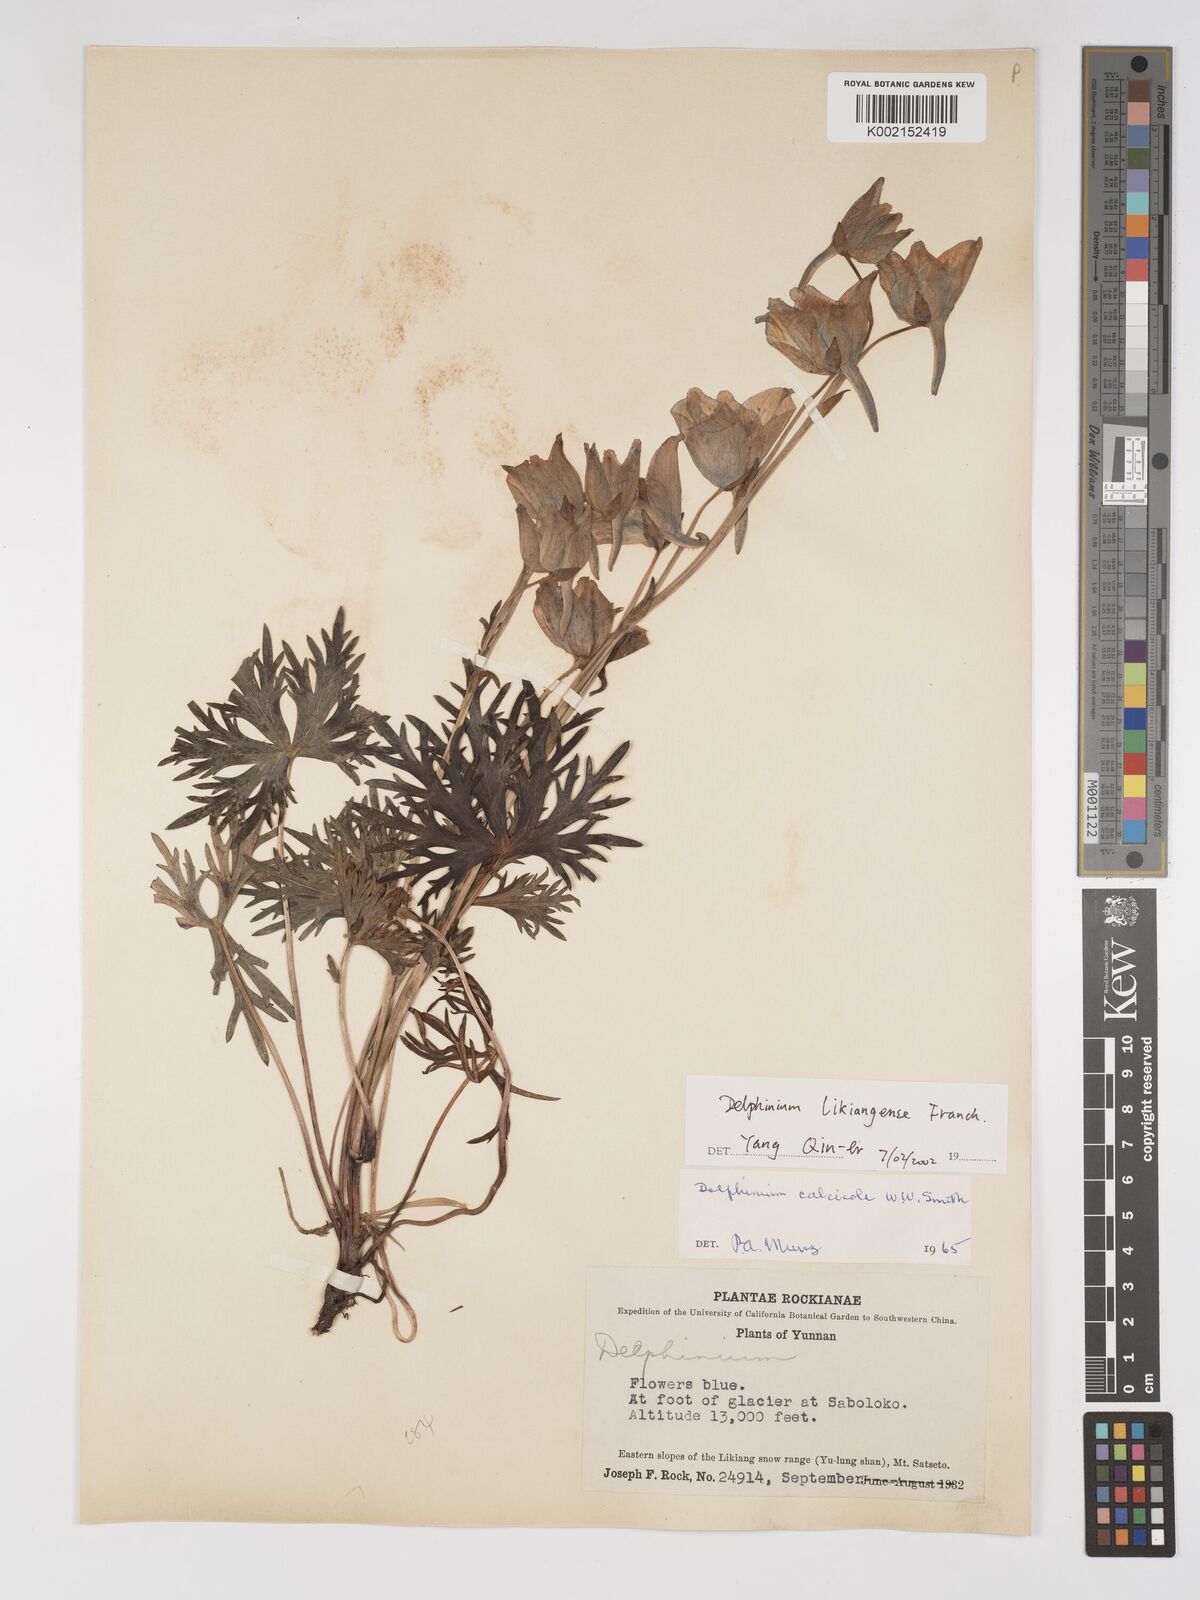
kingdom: Plantae
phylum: Tracheophyta
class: Magnoliopsida
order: Ranunculales
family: Ranunculaceae
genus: Delphinium
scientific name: Delphinium likiangense
